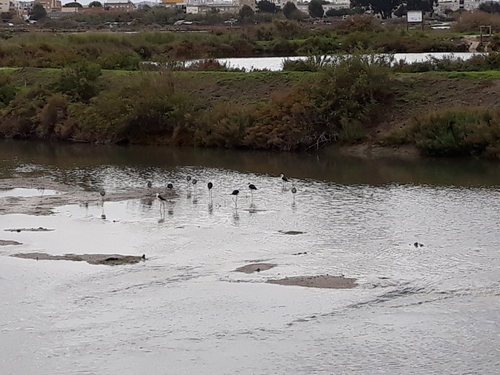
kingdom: Animalia
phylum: Chordata
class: Aves
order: Charadriiformes
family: Recurvirostridae
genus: Himantopus
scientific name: Himantopus himantopus
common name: Black-winged stilt
